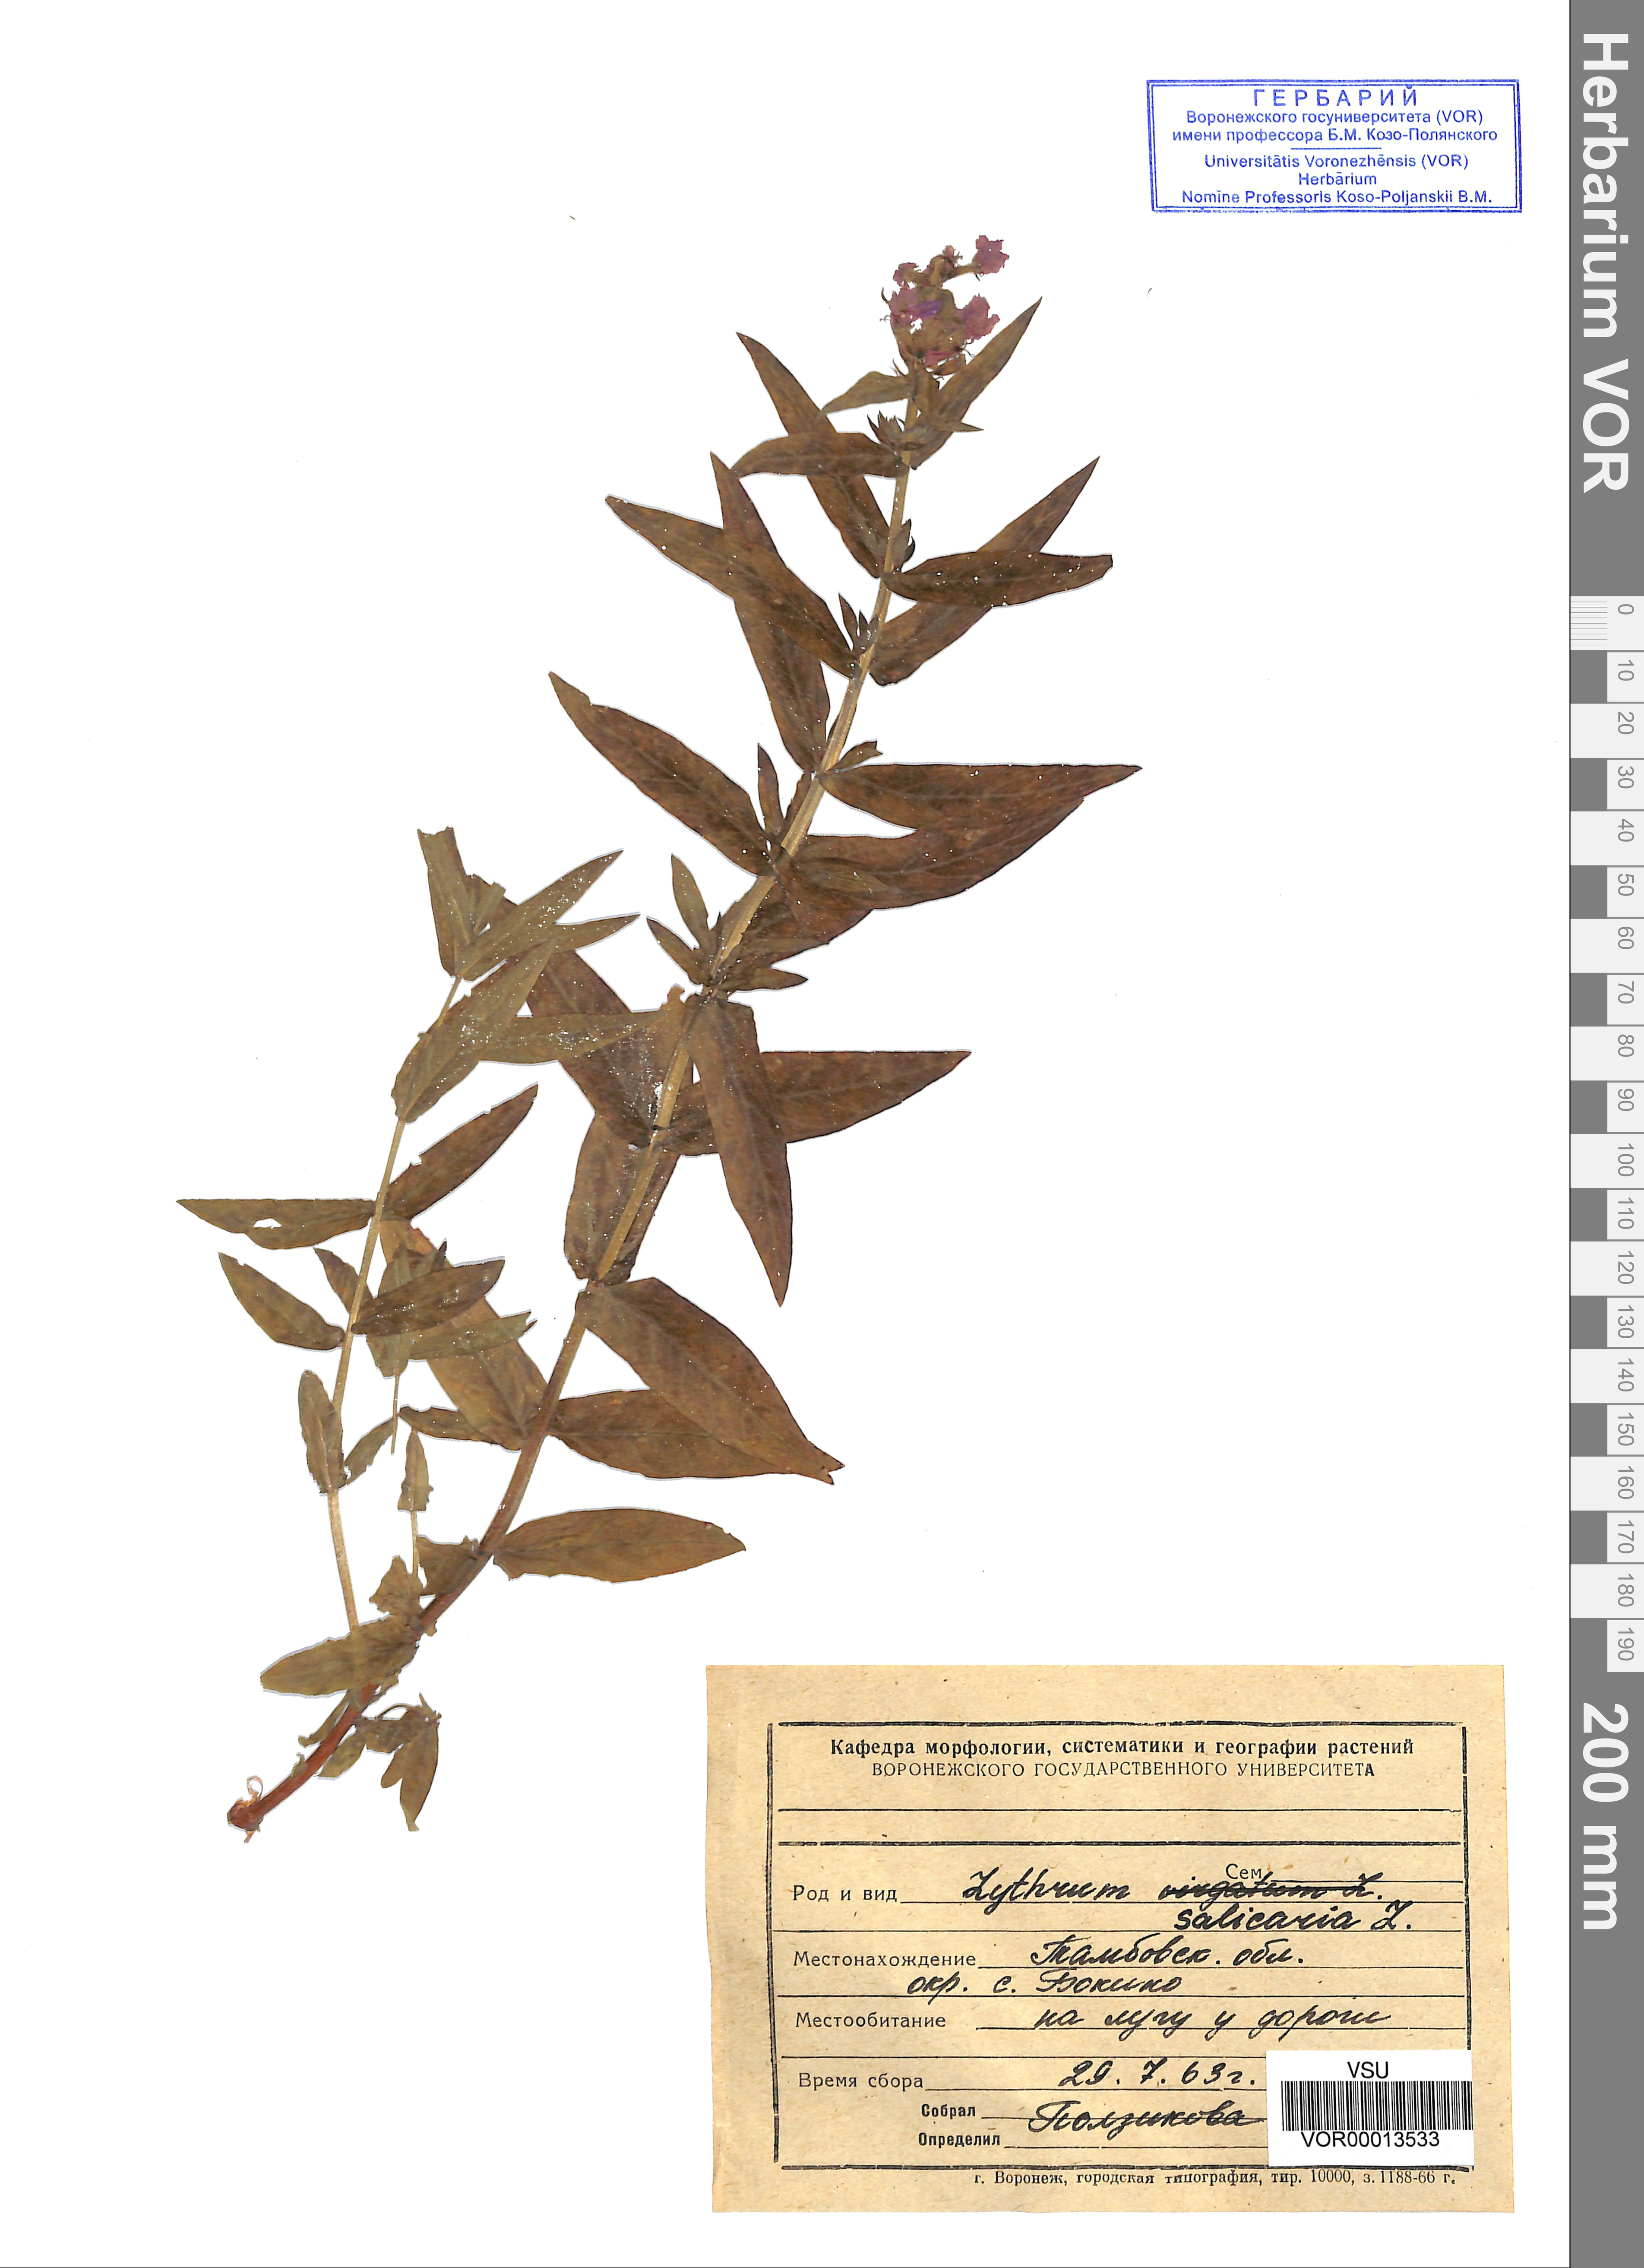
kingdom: Plantae
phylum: Tracheophyta
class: Magnoliopsida
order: Myrtales
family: Lythraceae
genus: Lythrum
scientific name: Lythrum salicaria
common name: Purple loosestrife
